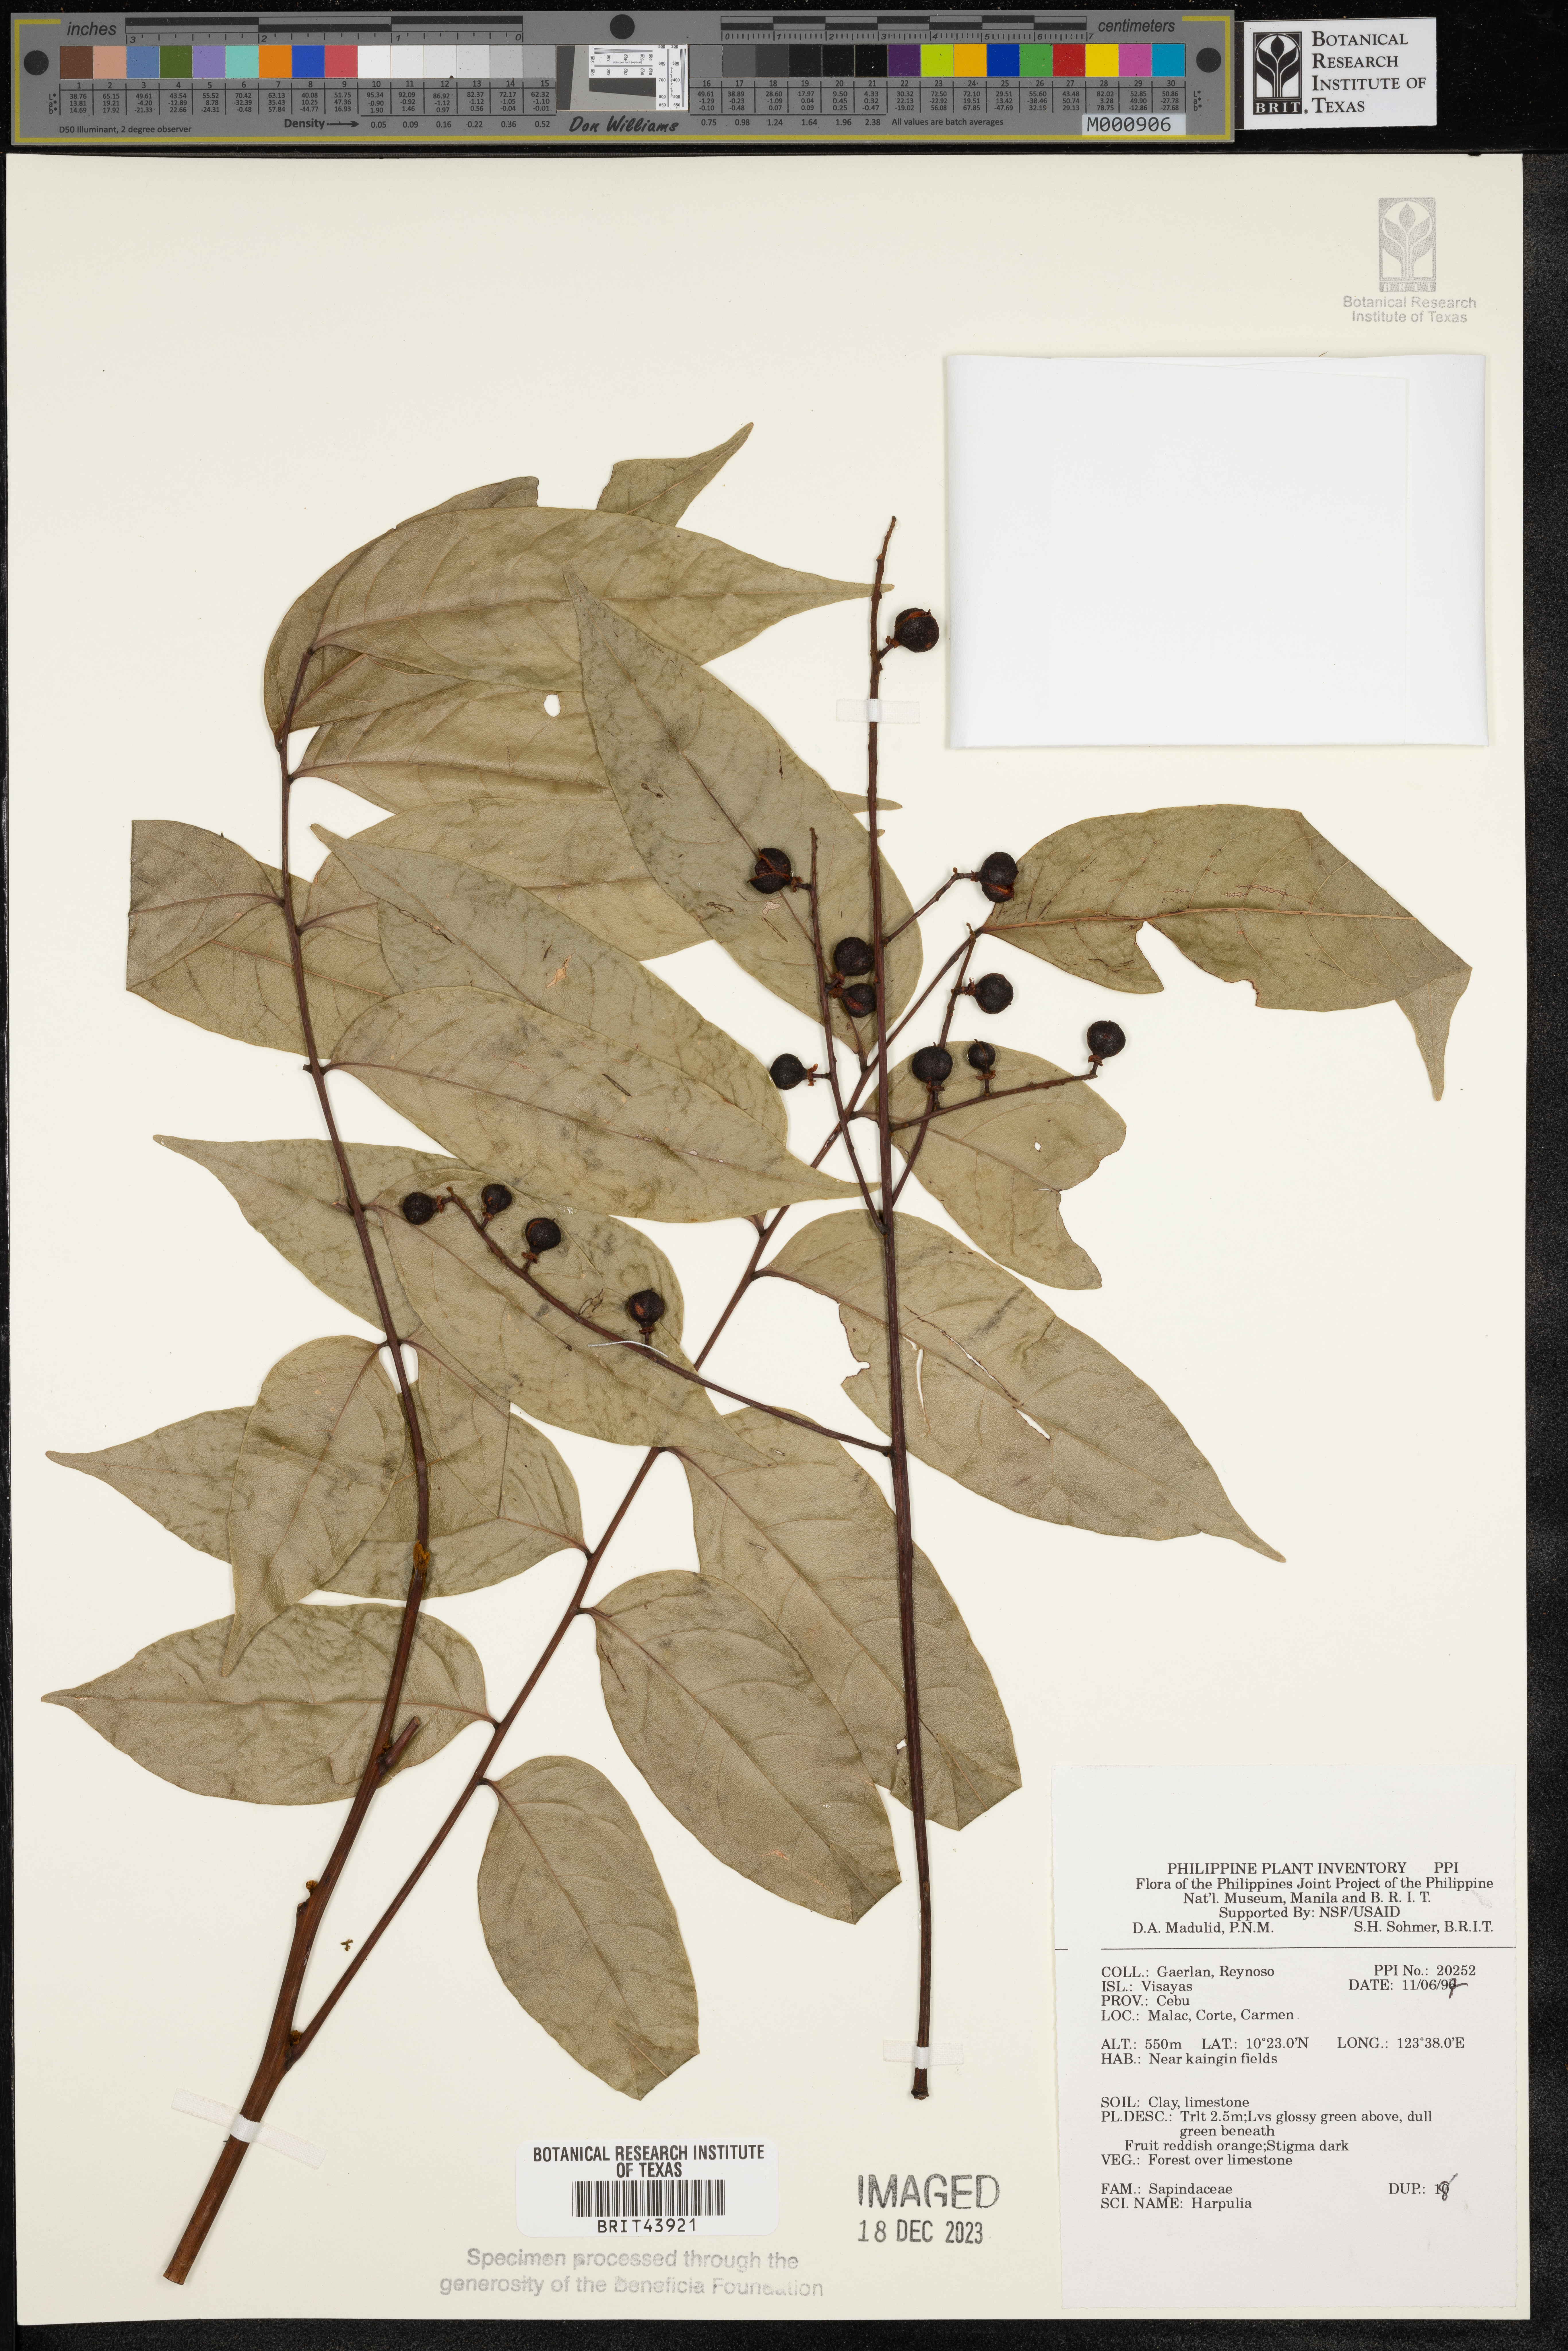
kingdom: Plantae
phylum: Tracheophyta
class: Magnoliopsida
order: Sapindales
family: Sapindaceae
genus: Harpullia
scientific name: Harpullia
